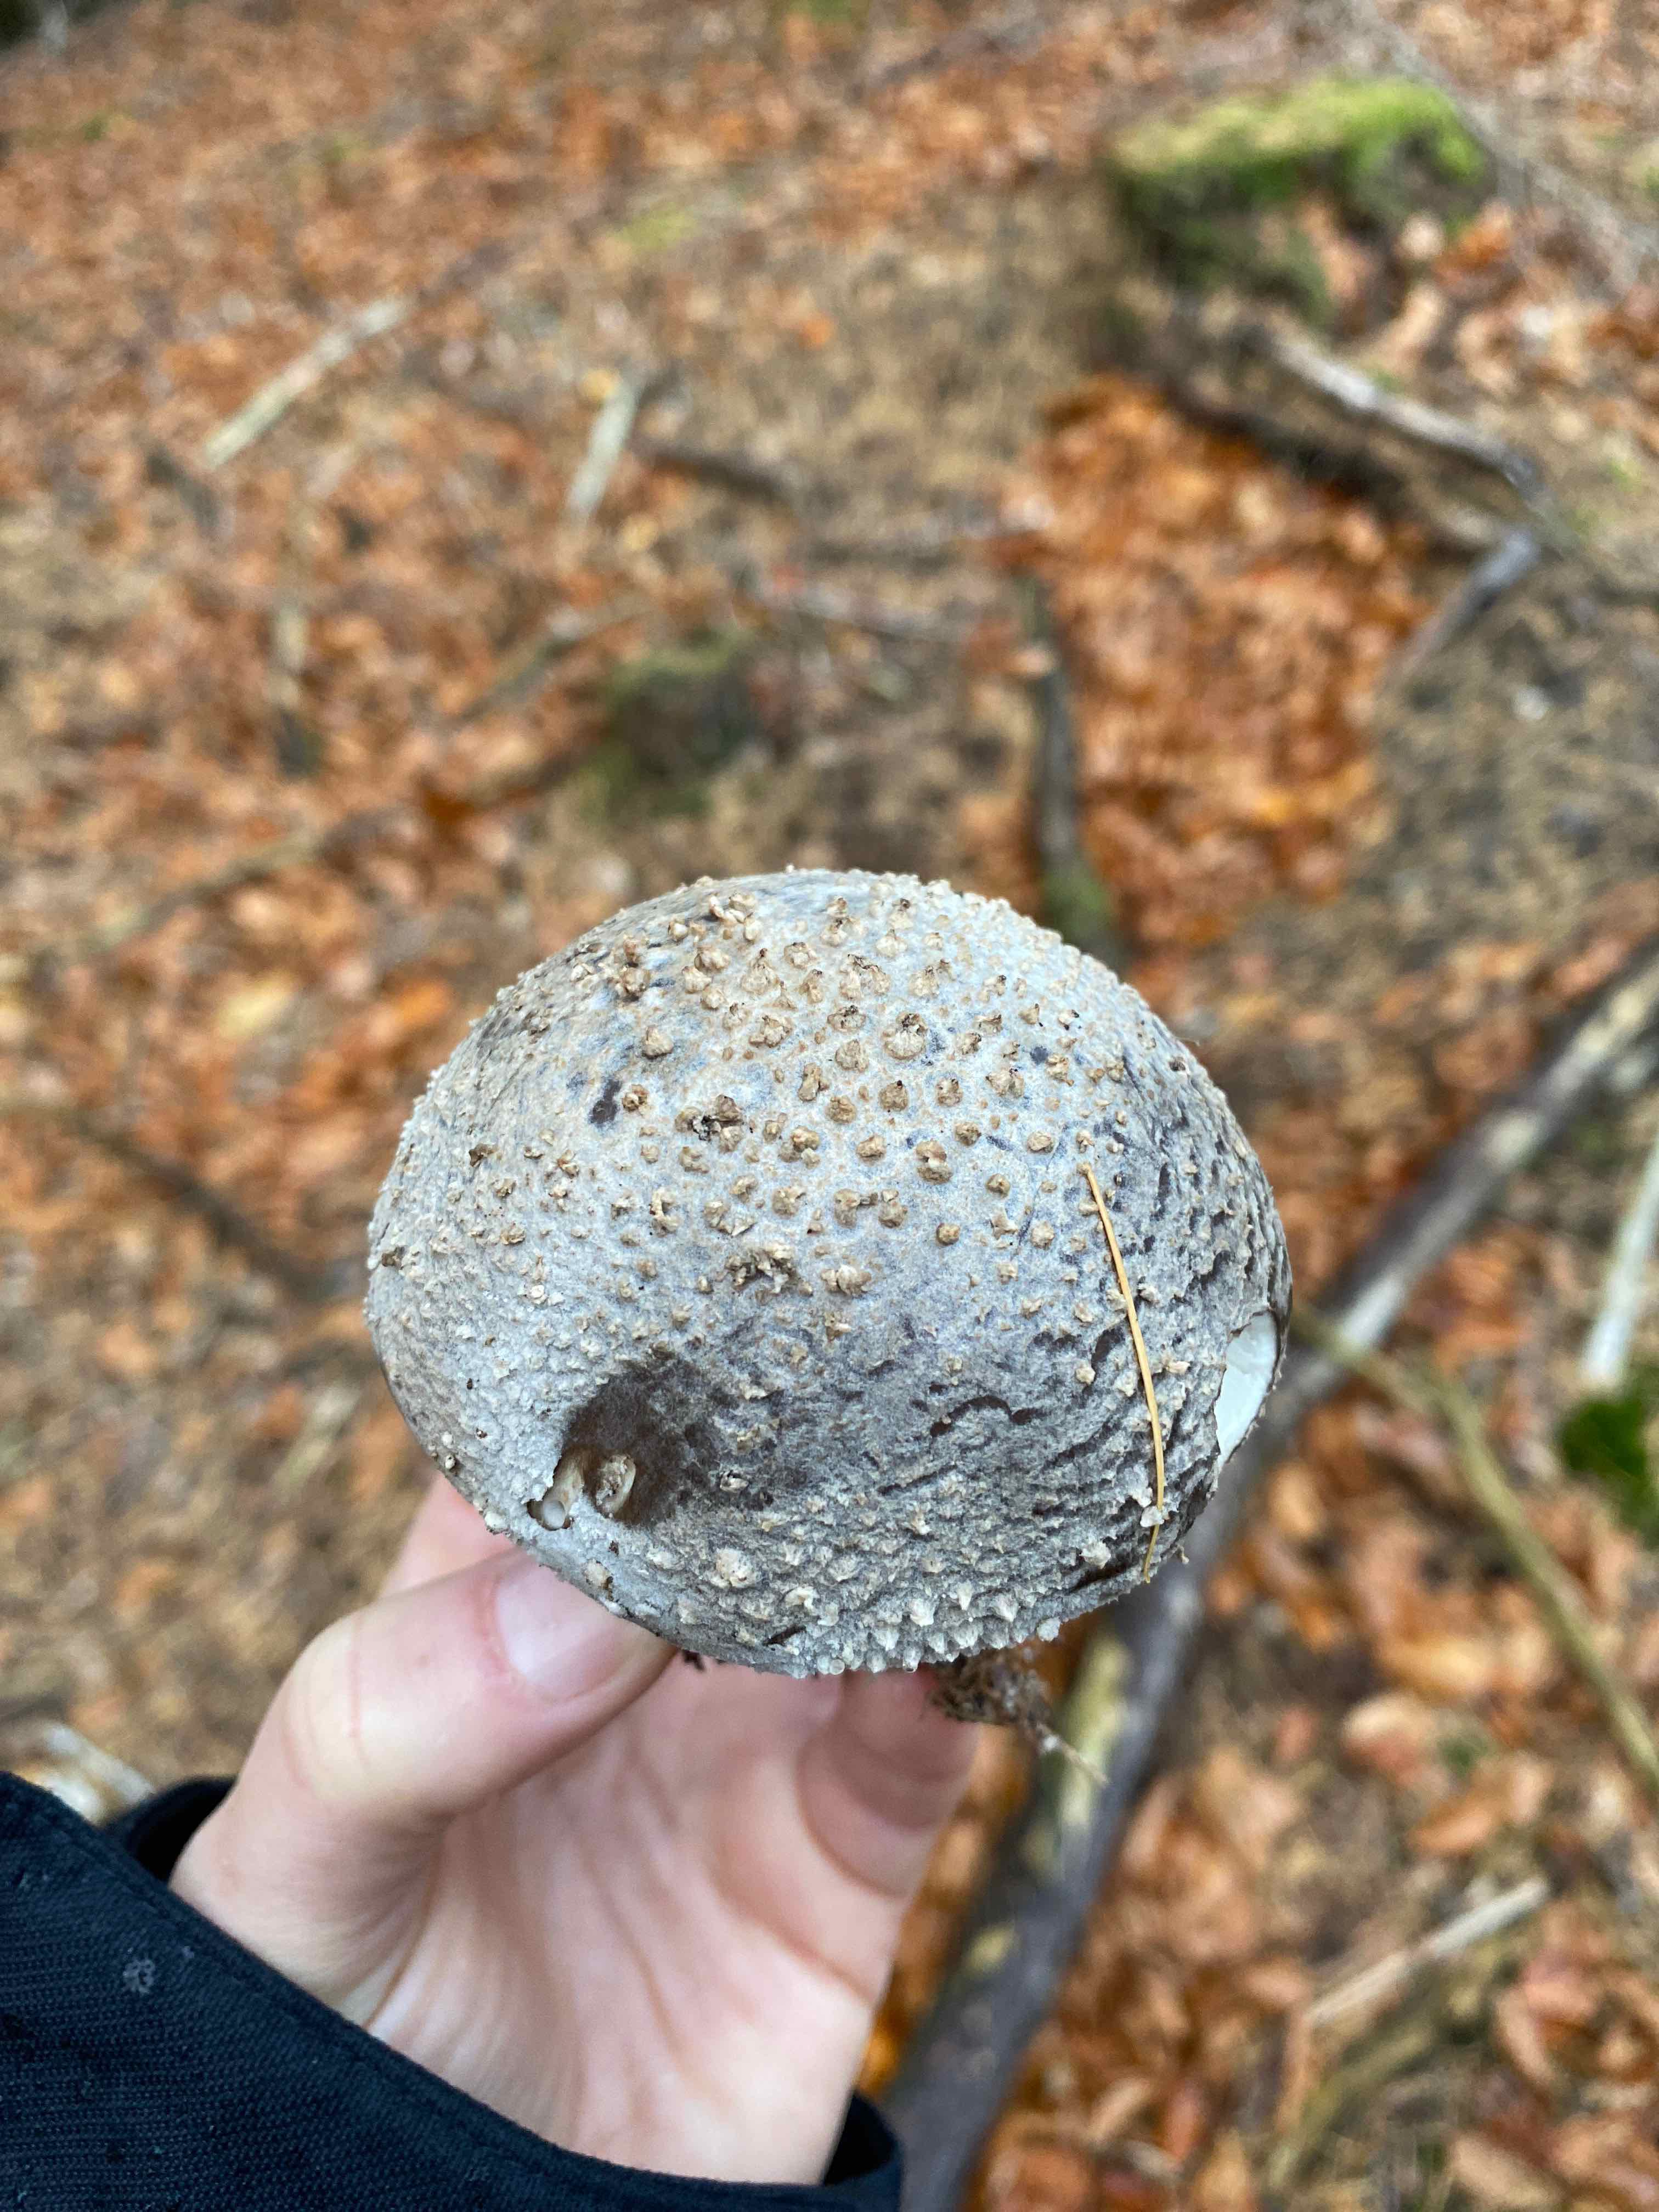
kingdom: Fungi
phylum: Basidiomycota
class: Agaricomycetes
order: Agaricales
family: Amanitaceae
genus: Amanita
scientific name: Amanita
